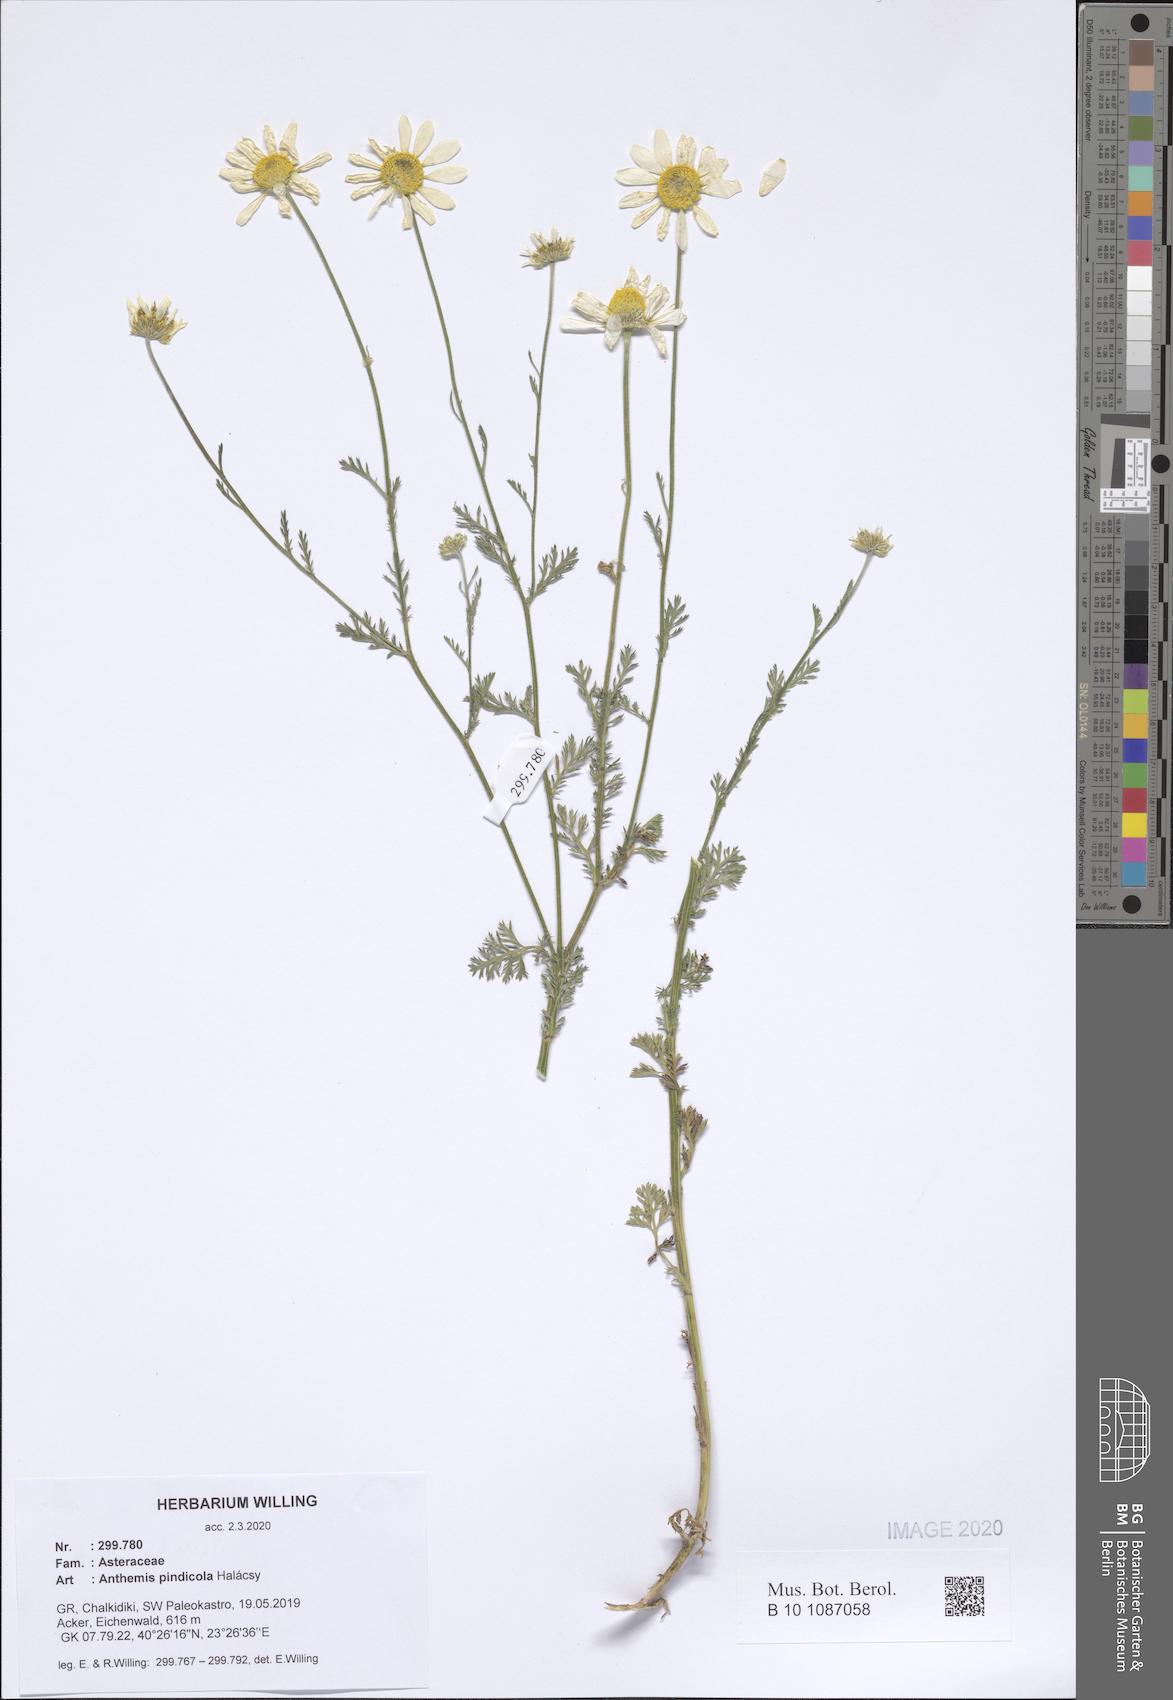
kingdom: Plantae
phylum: Tracheophyta
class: Magnoliopsida
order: Asterales
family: Asteraceae
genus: Anthemis
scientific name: Anthemis pindicola
